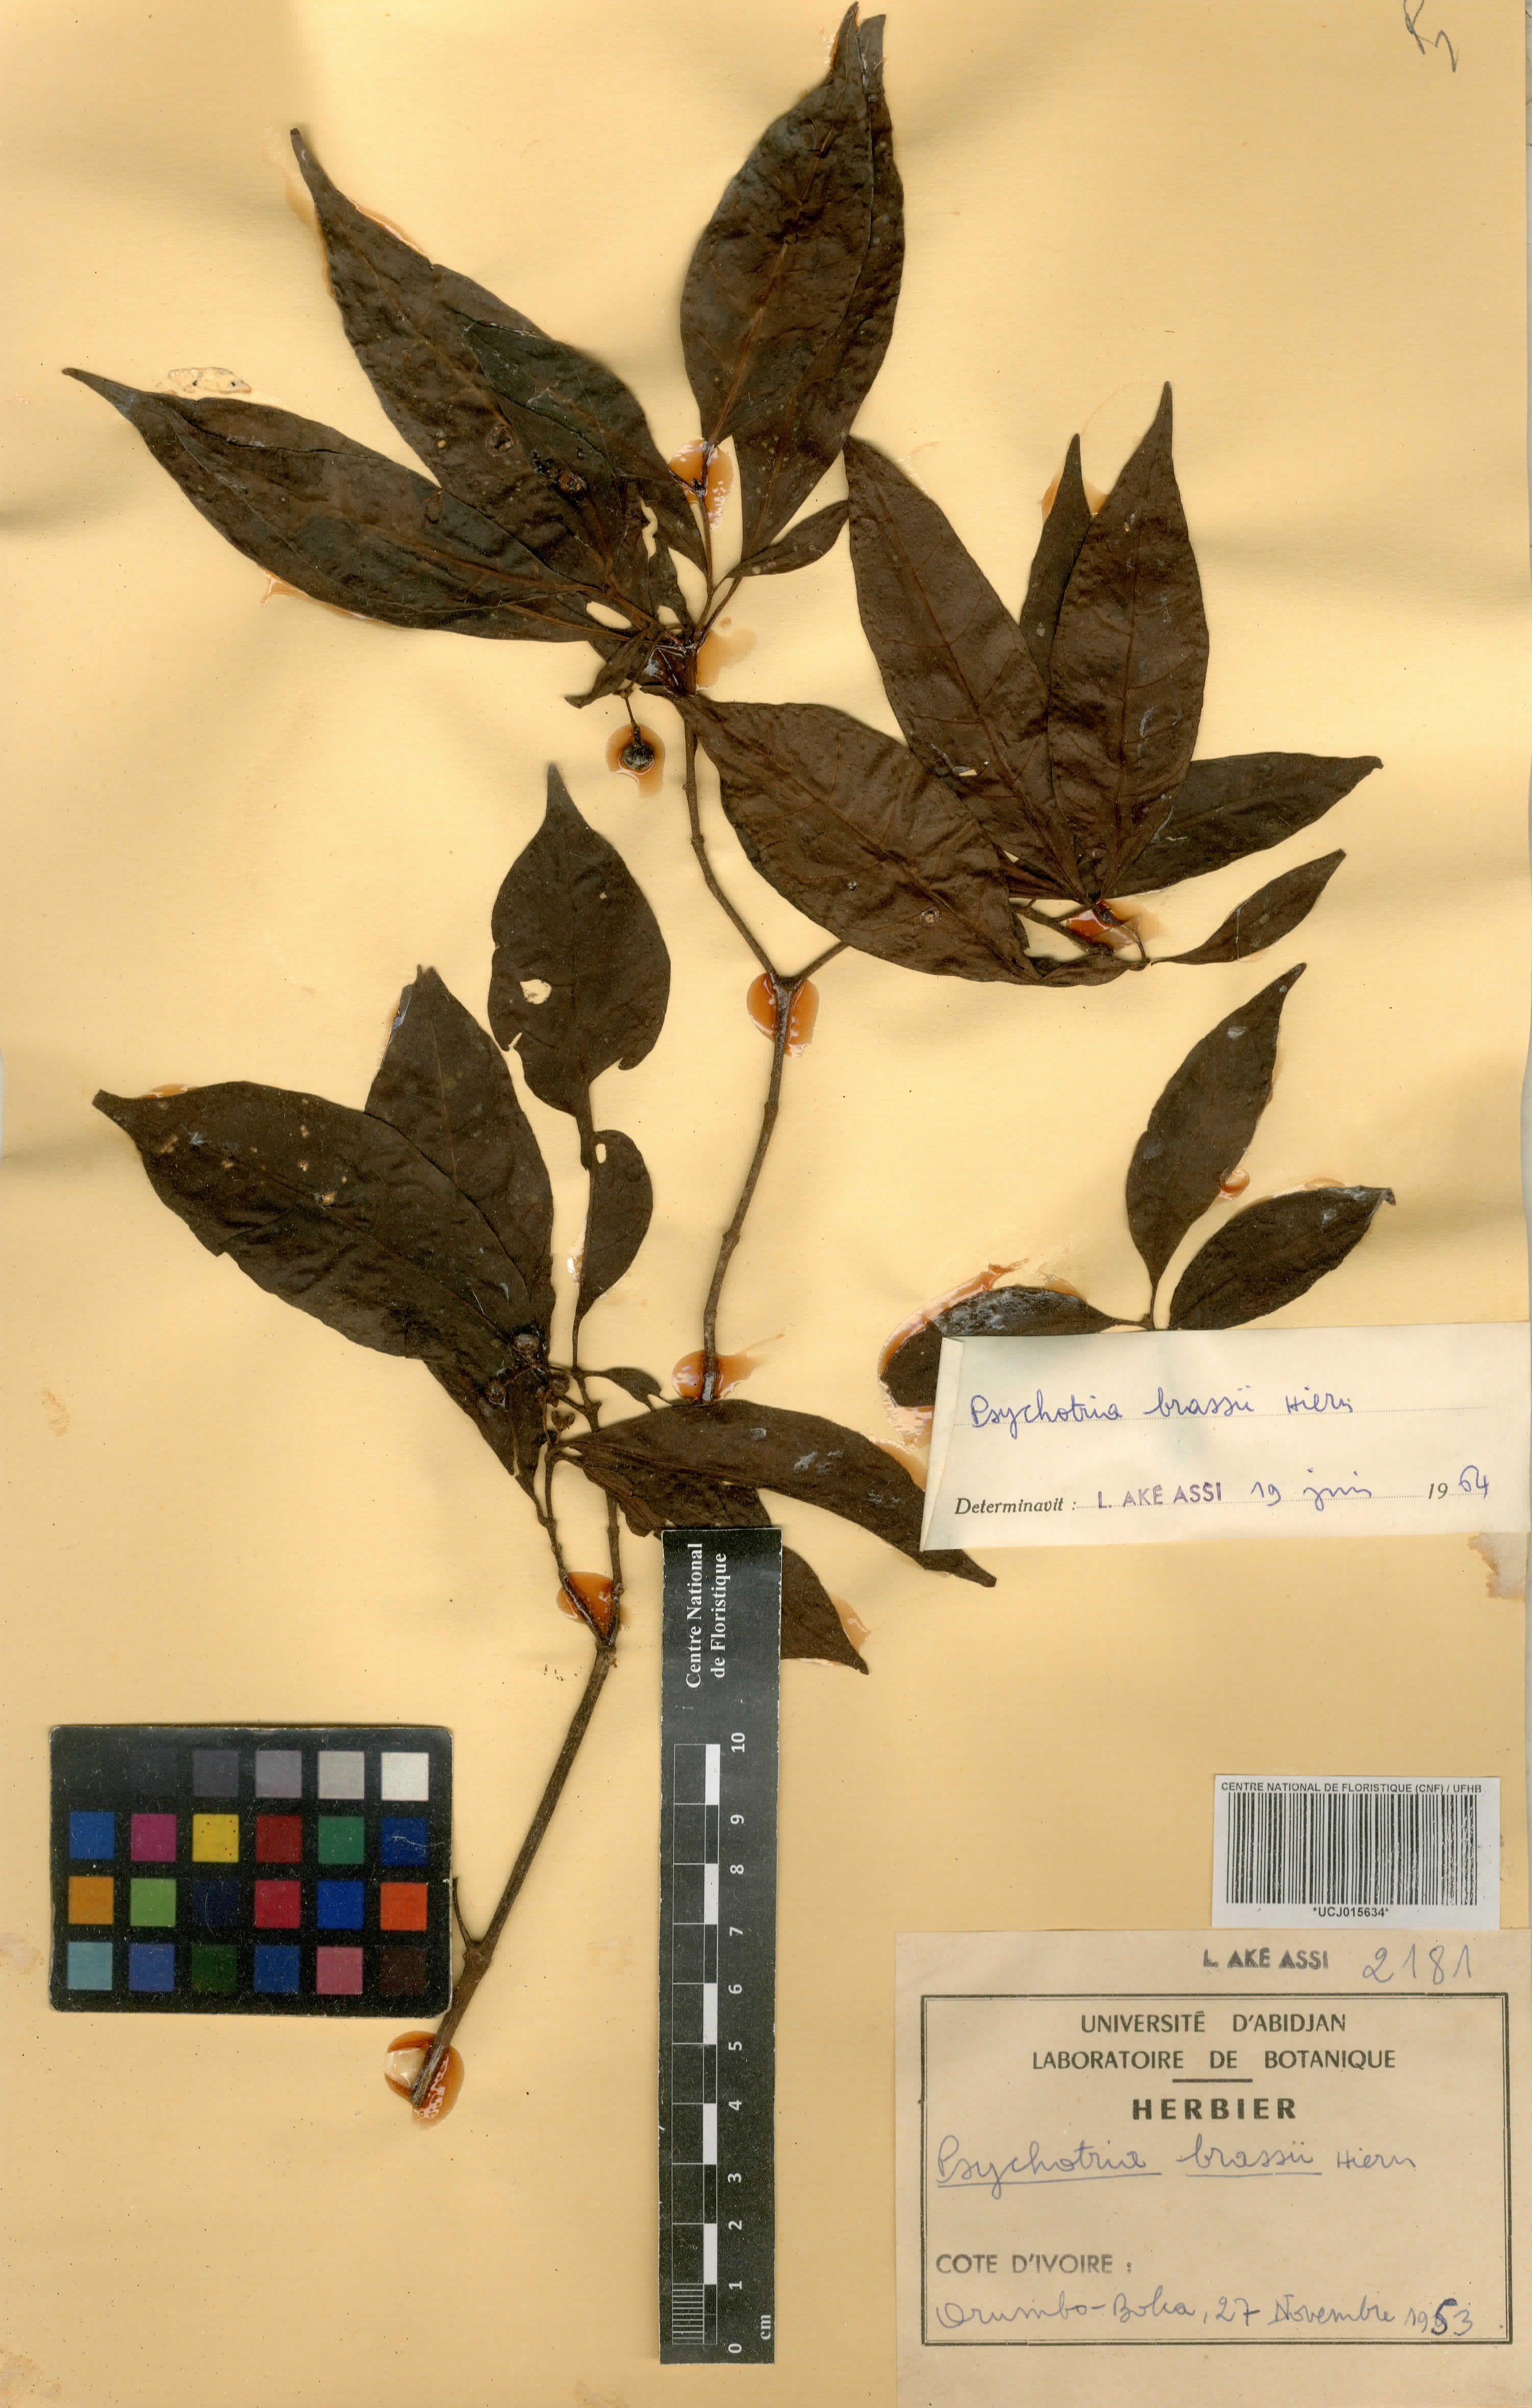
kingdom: Plantae
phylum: Tracheophyta
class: Magnoliopsida
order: Gentianales
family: Rubiaceae
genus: Psychotria
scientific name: Psychotria brassii
